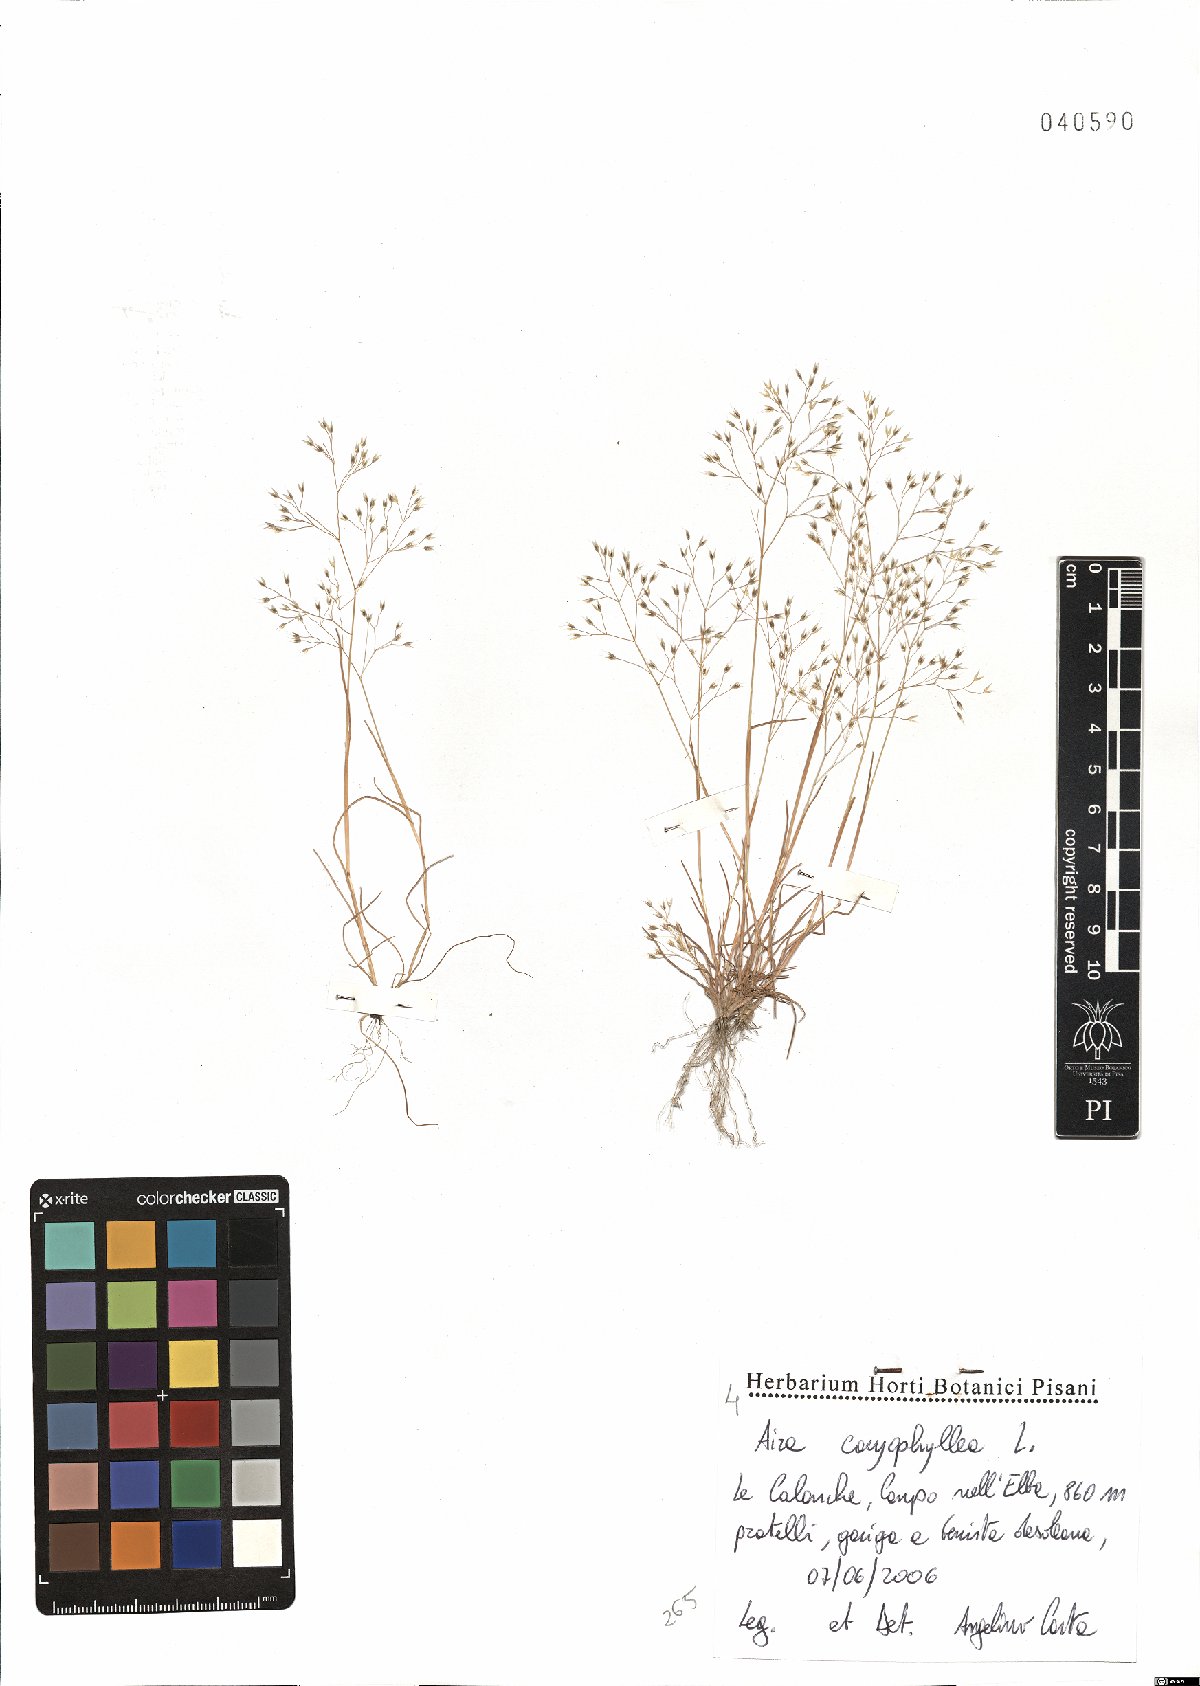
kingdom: Plantae
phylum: Tracheophyta
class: Liliopsida
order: Poales
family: Poaceae
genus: Aira
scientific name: Aira caryophyllea
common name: Silver hairgrass
